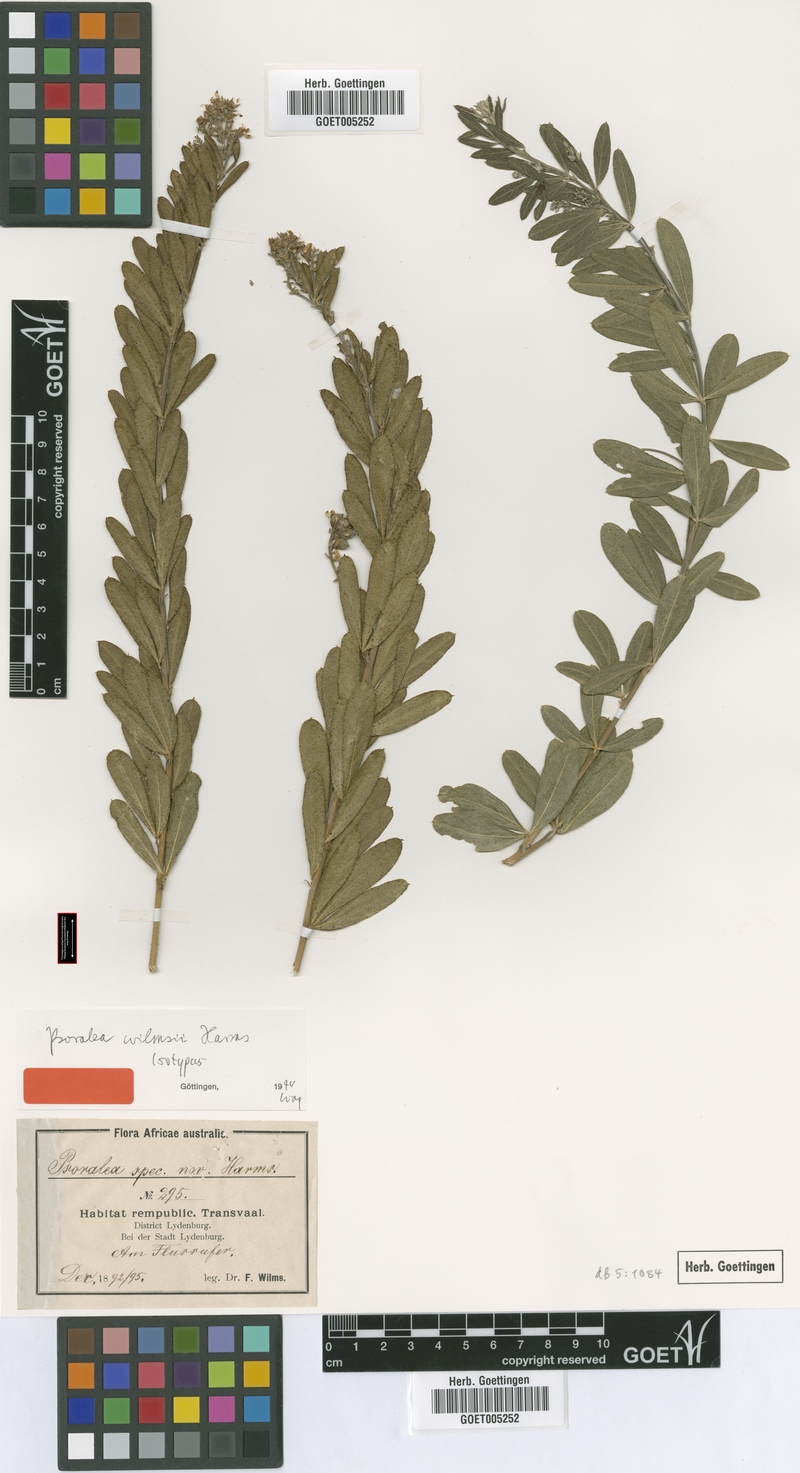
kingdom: Plantae
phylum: Tracheophyta
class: Magnoliopsida
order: Fabales
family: Fabaceae
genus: Psoralea
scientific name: Psoralea wilmsii
